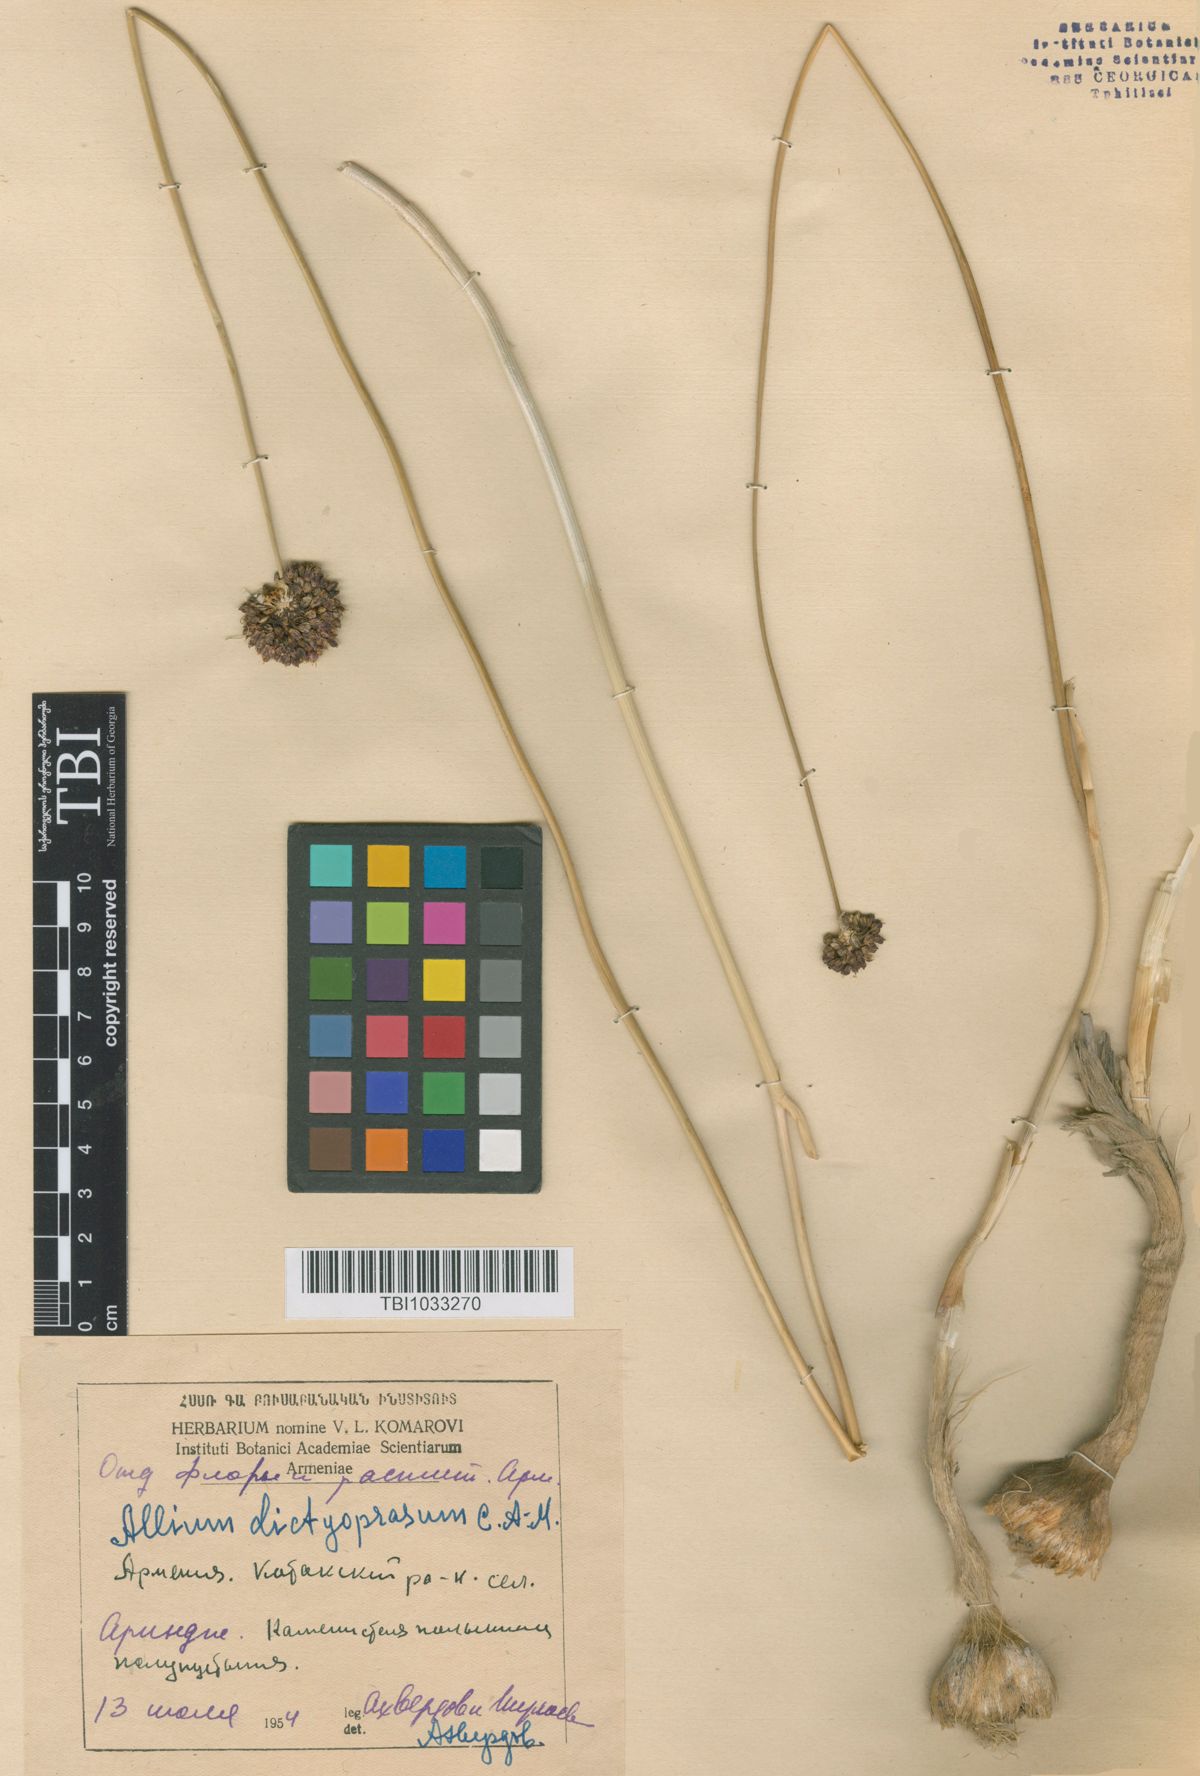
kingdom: Plantae
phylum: Tracheophyta
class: Liliopsida
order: Asparagales
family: Amaryllidaceae
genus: Allium
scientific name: Allium dictyoprasum
